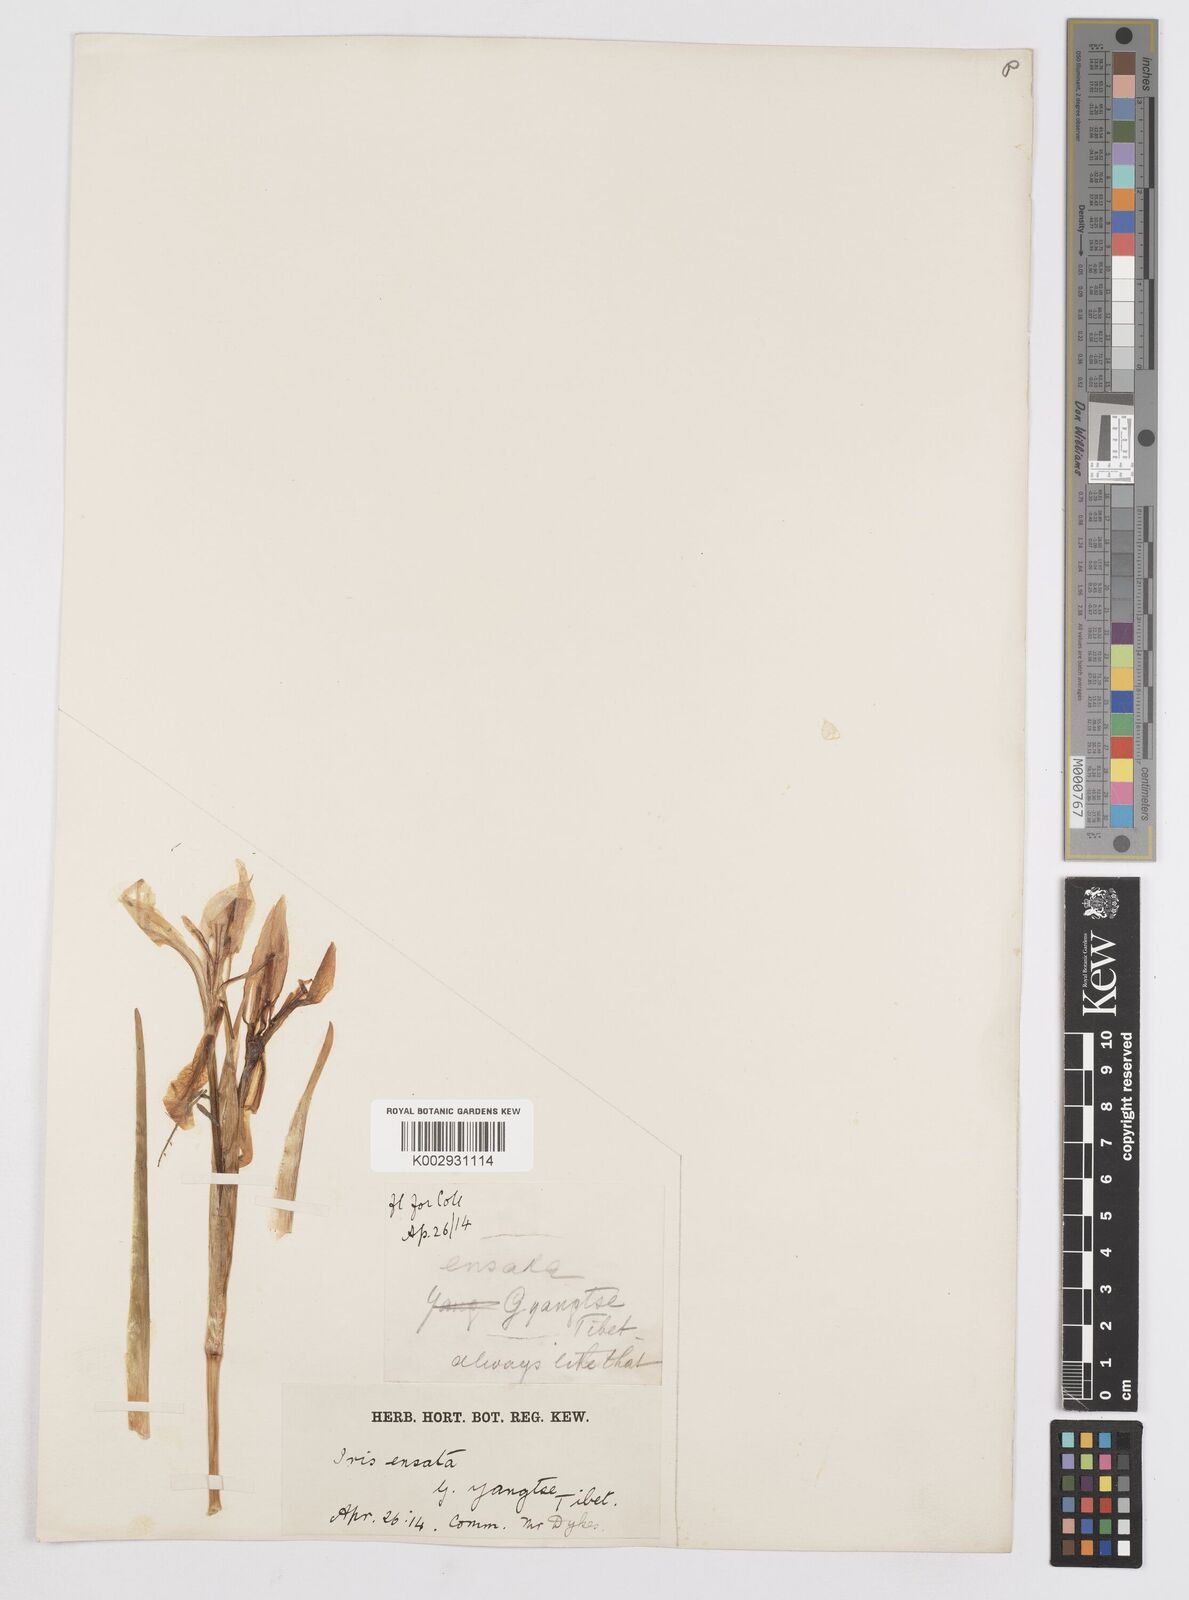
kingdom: Plantae
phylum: Tracheophyta
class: Liliopsida
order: Asparagales
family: Iridaceae
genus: Iris
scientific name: Iris ensata
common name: Beaked iris
